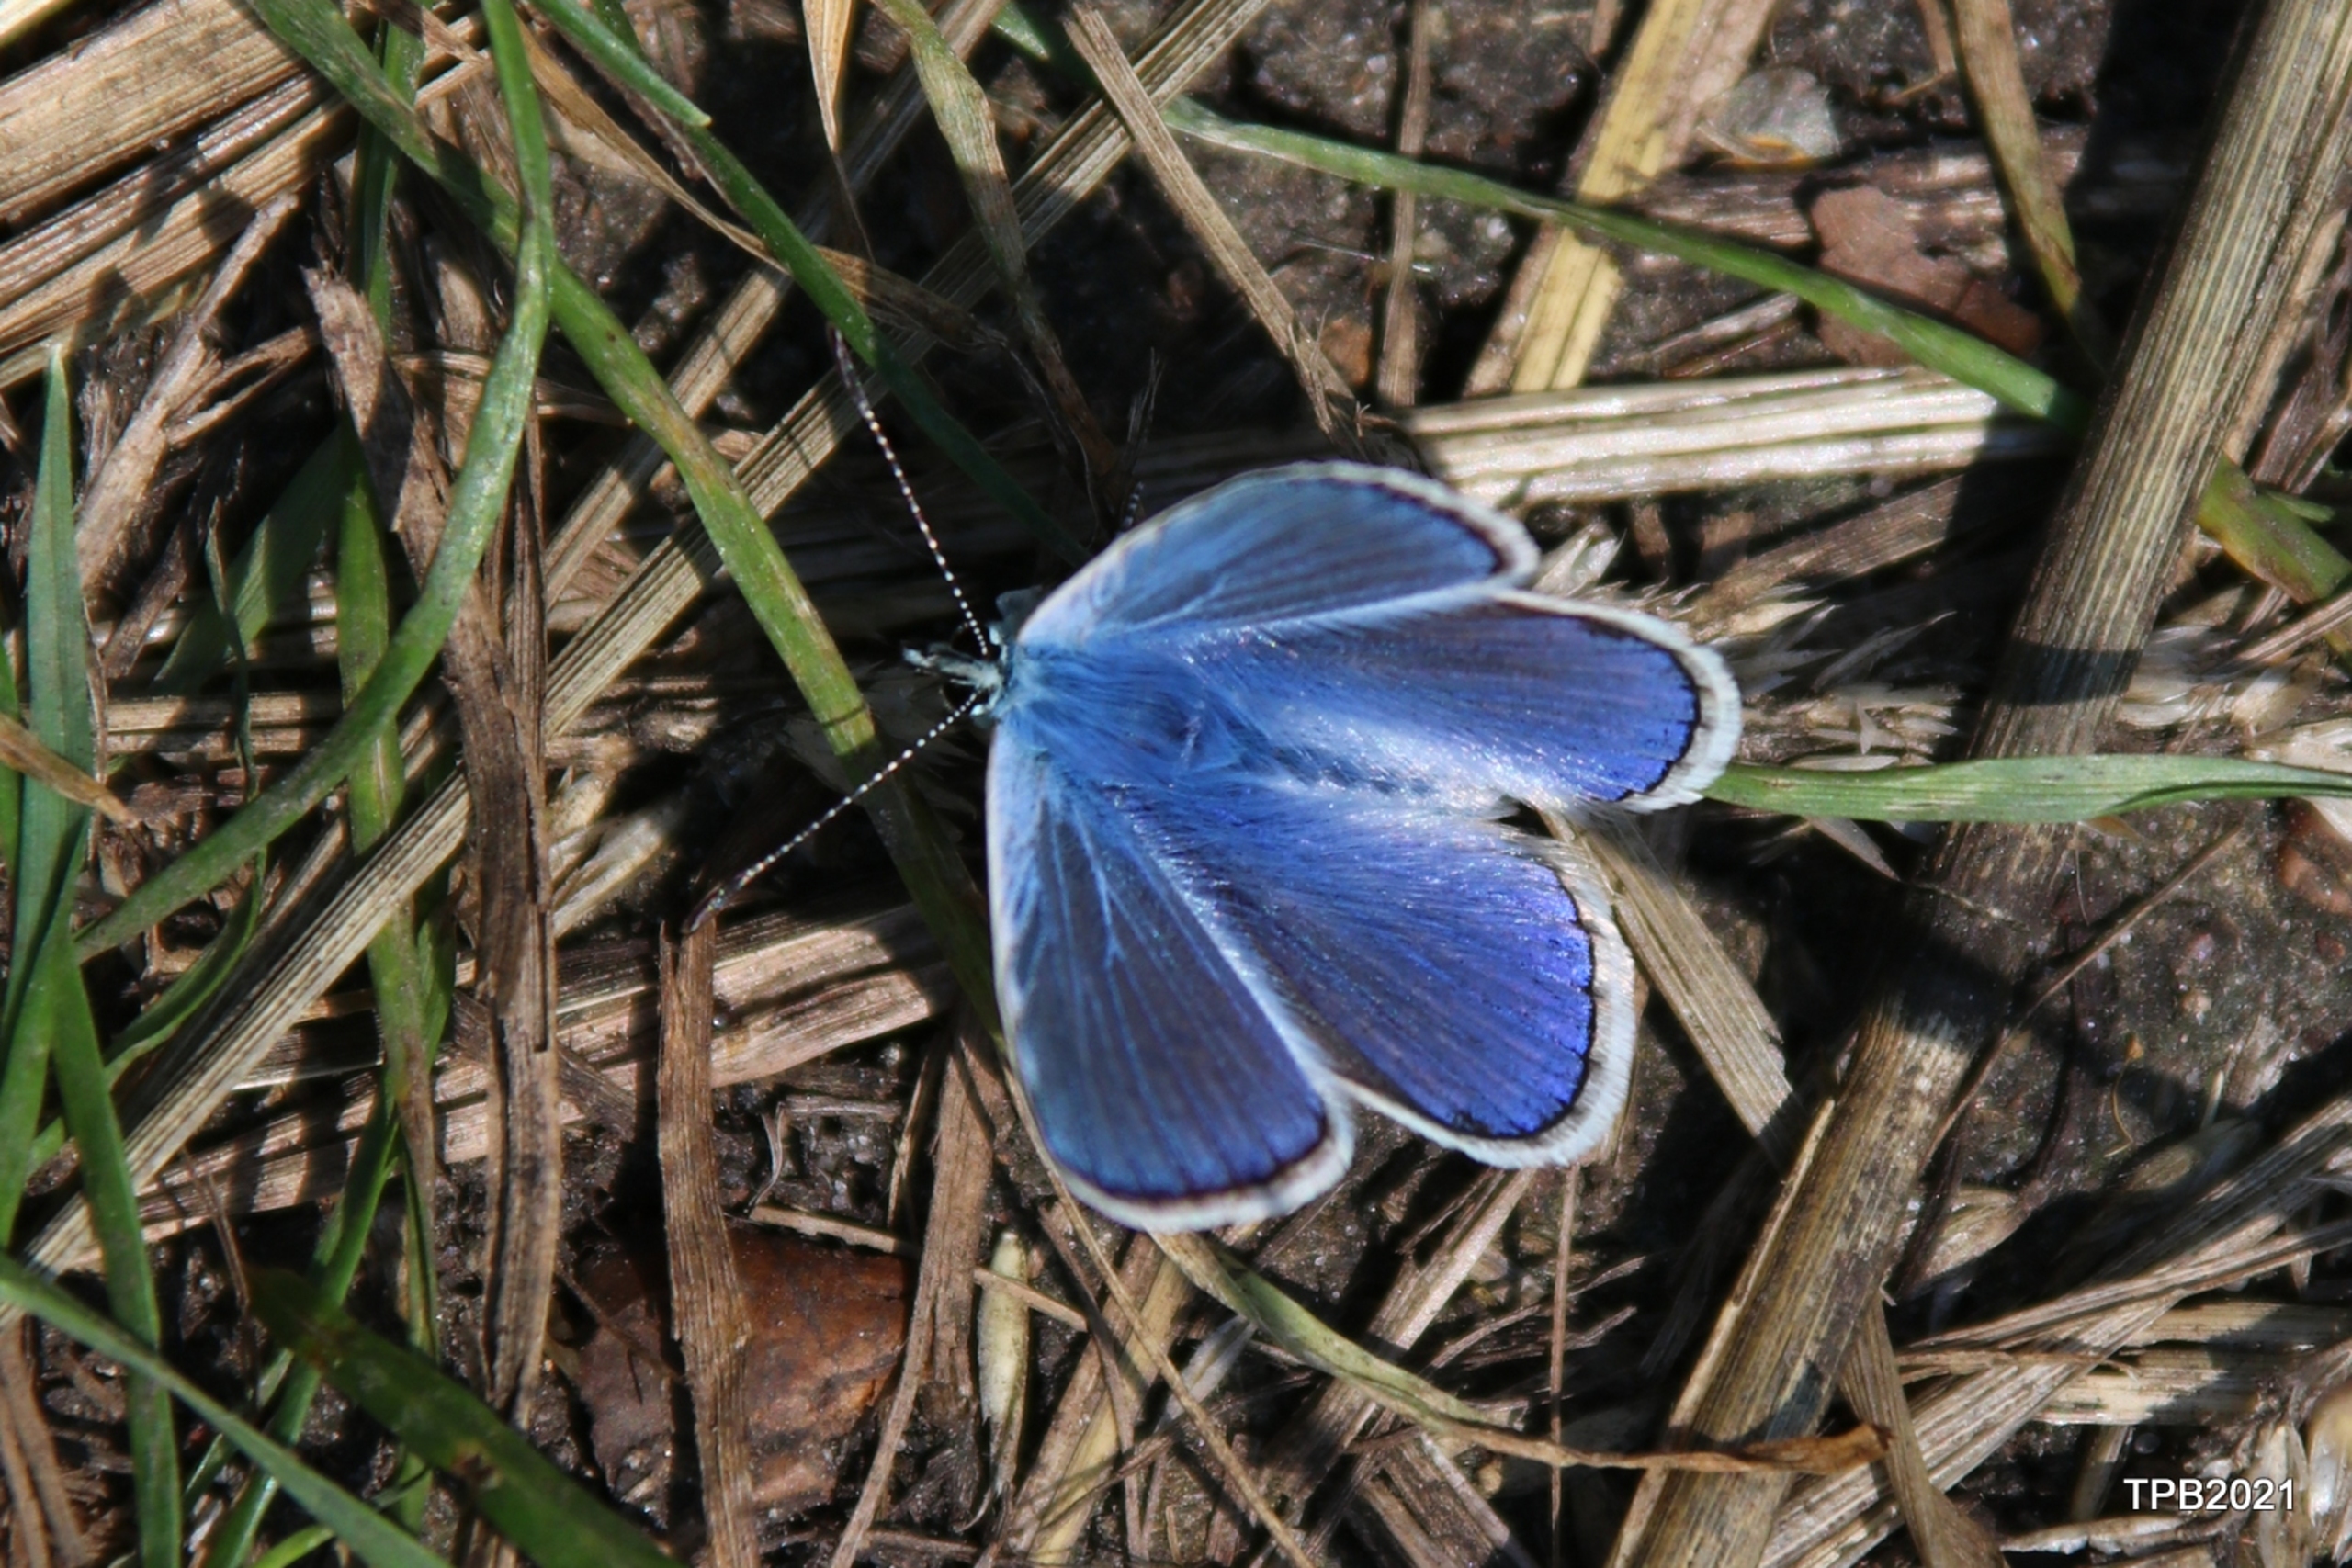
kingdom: Animalia
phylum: Arthropoda
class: Insecta
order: Lepidoptera
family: Lycaenidae
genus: Polyommatus
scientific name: Polyommatus icarus
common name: Almindelig blåfugl
